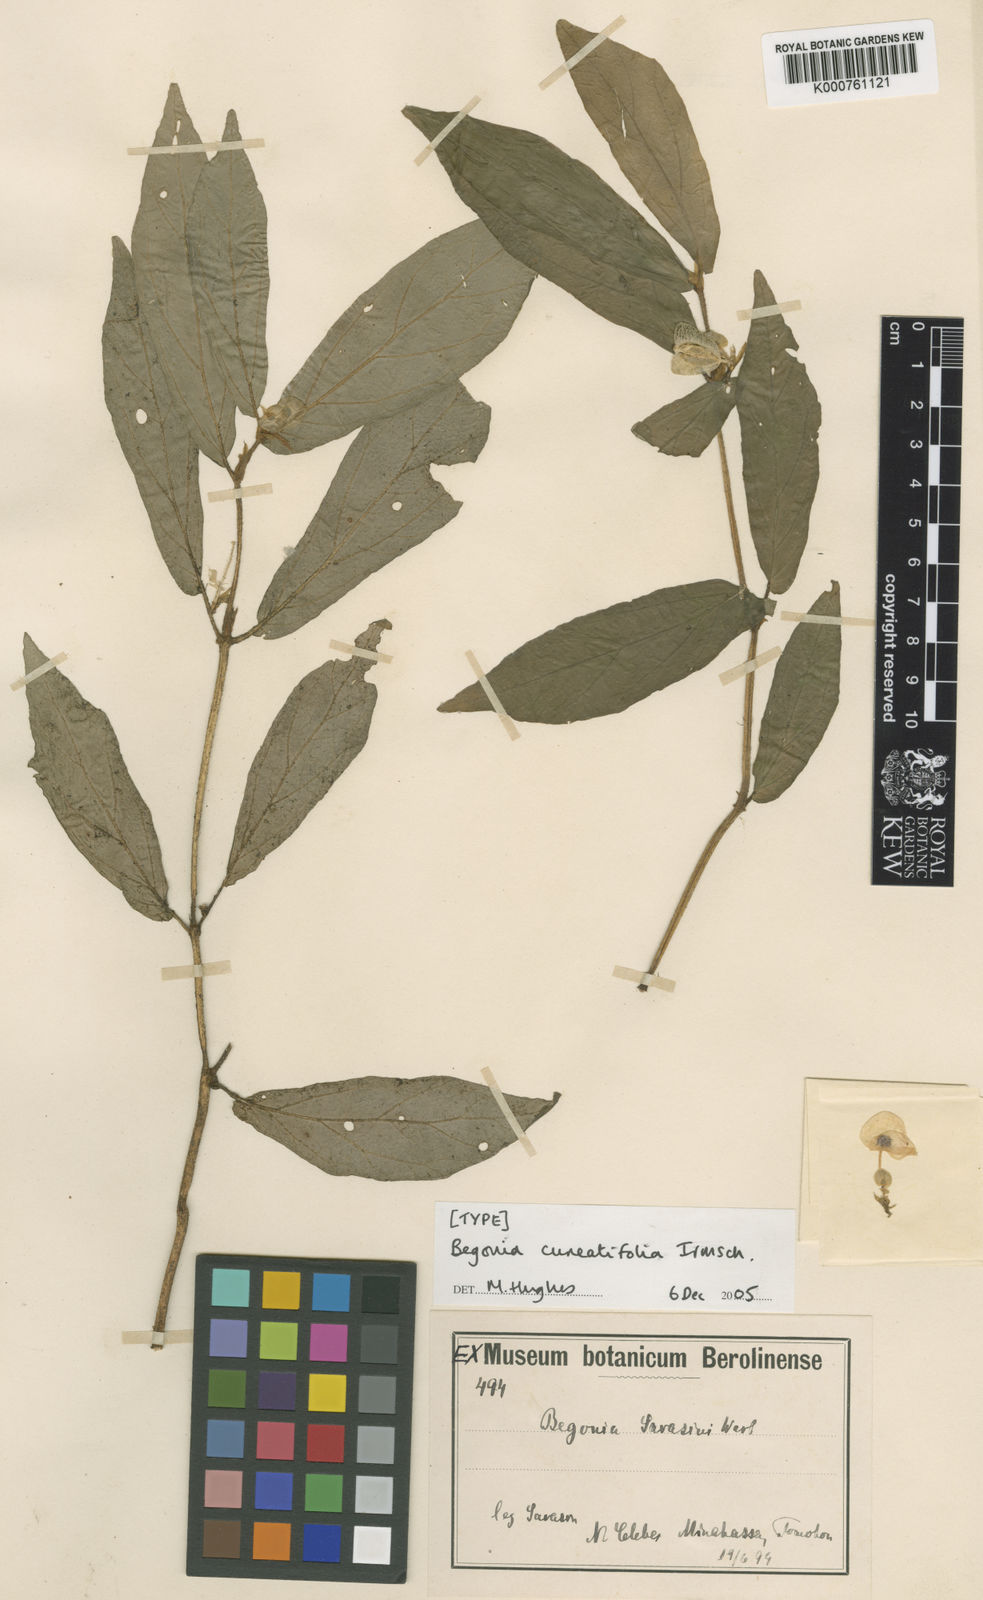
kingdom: Plantae
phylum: Tracheophyta
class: Magnoliopsida
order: Cucurbitales
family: Begoniaceae
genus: Begonia
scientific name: Begonia cuneatifolia
